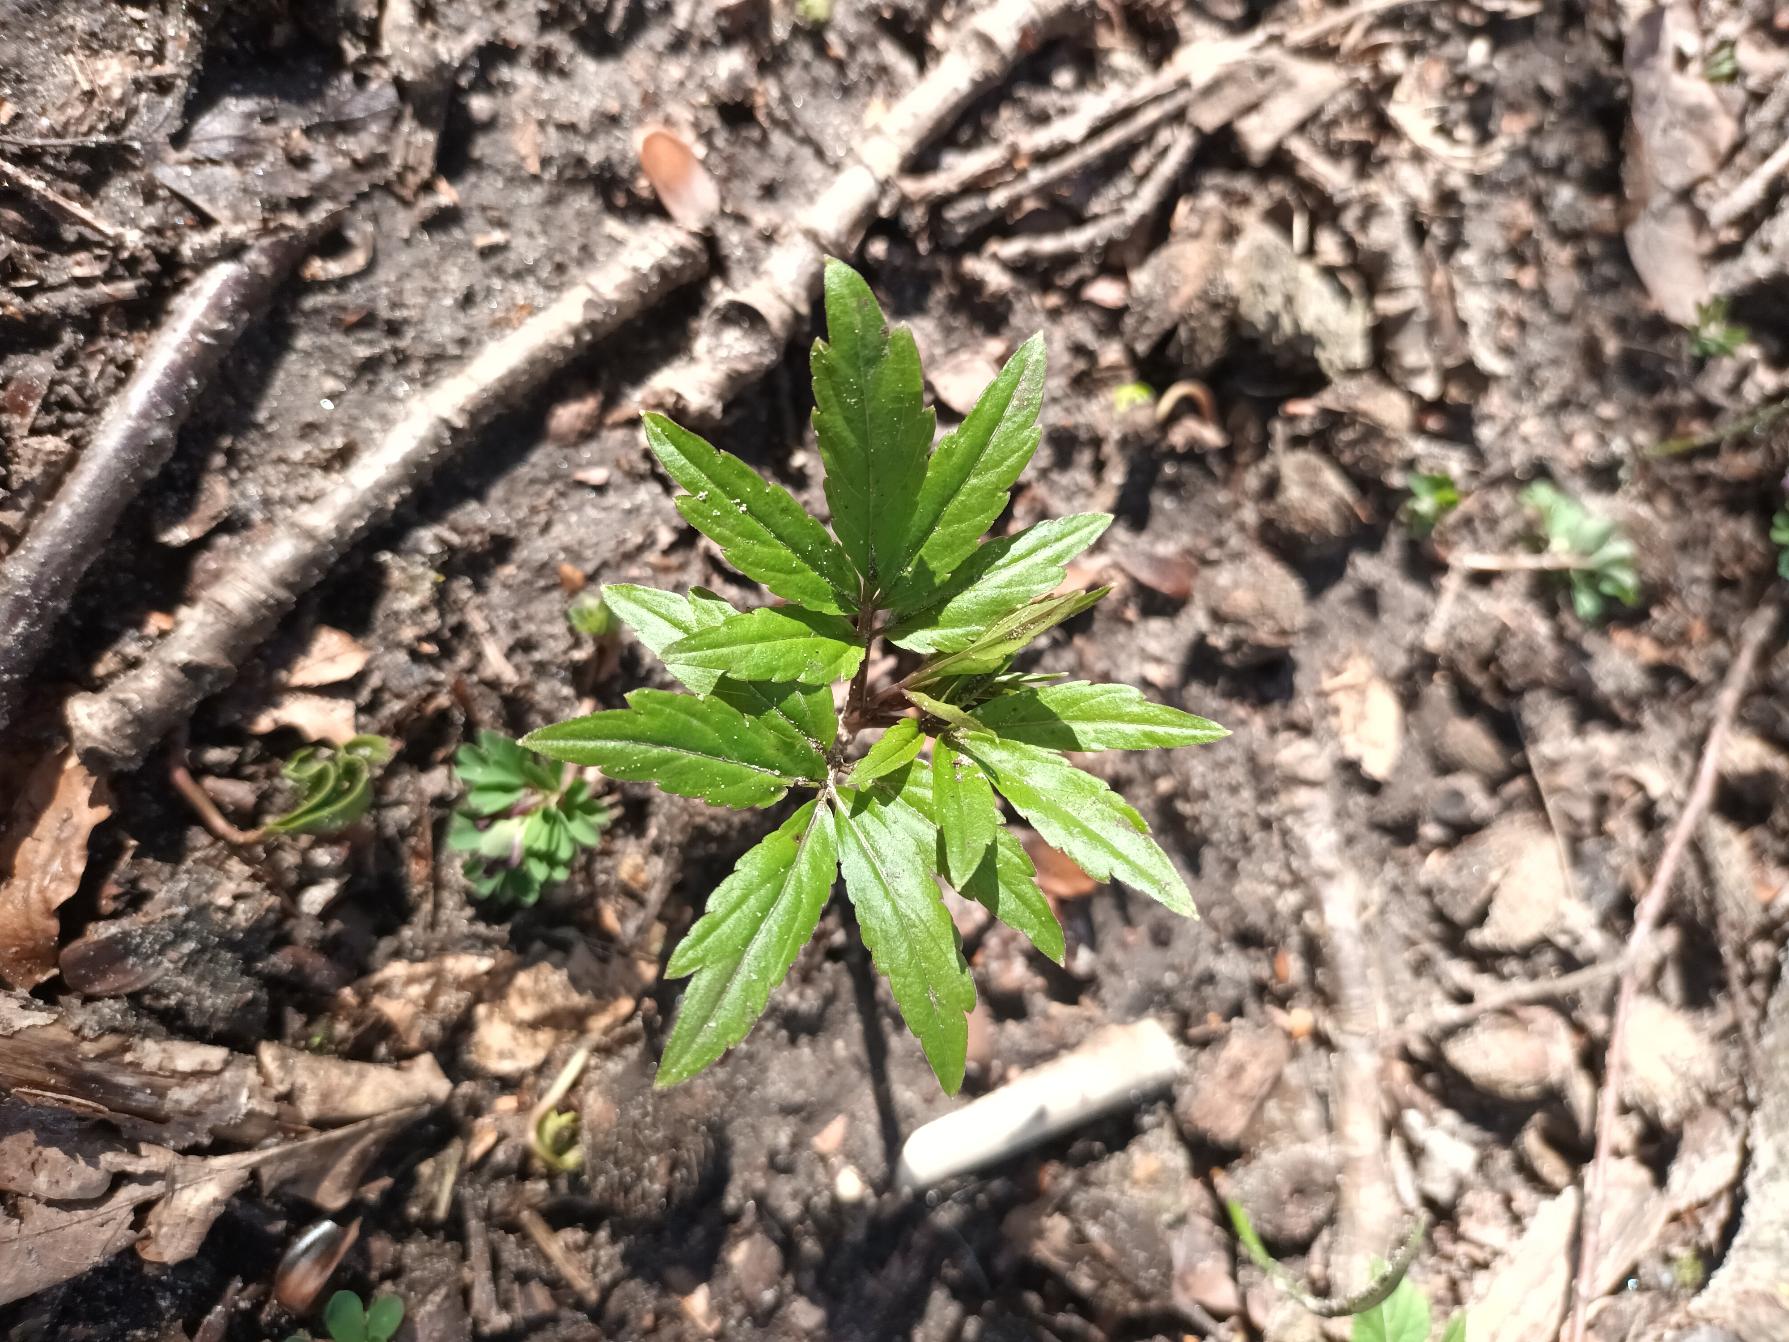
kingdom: Plantae
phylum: Tracheophyta
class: Magnoliopsida
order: Brassicales
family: Brassicaceae
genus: Cardamine
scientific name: Cardamine bulbifera
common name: Tandrod
